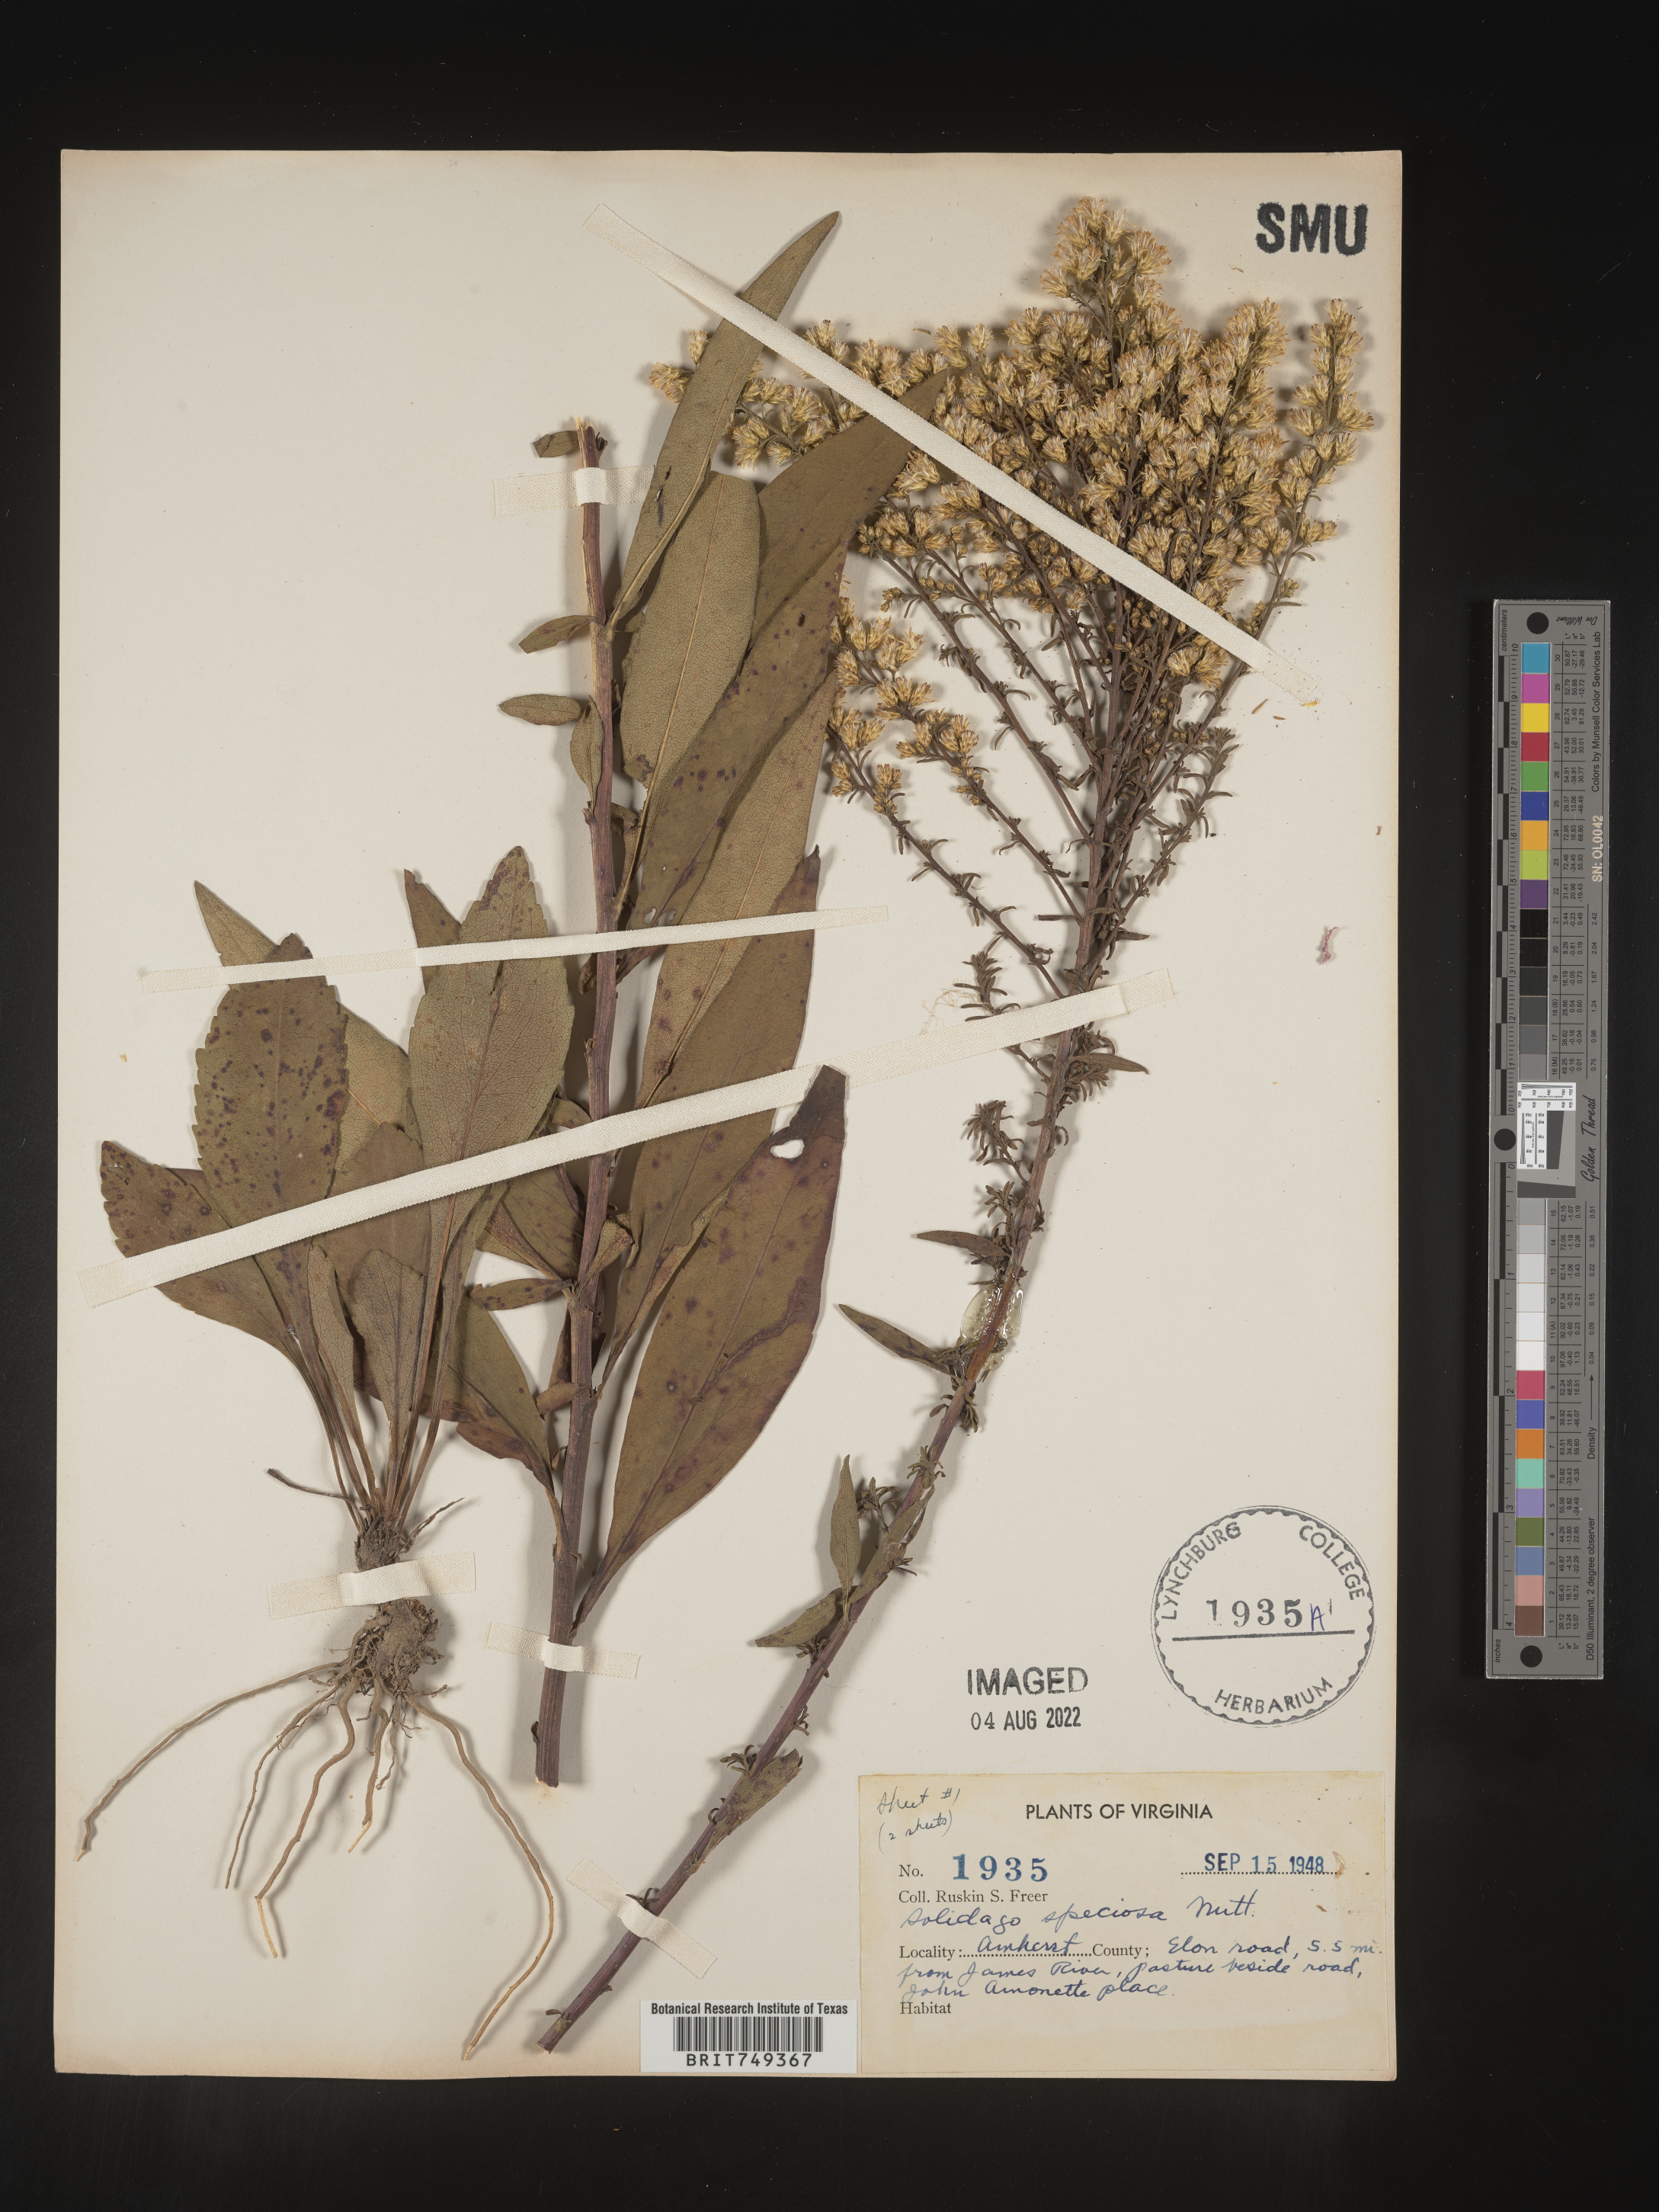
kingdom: Plantae
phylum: Tracheophyta
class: Magnoliopsida
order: Asterales
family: Asteraceae
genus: Solidago
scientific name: Solidago speciosa
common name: Showy goldenrod
